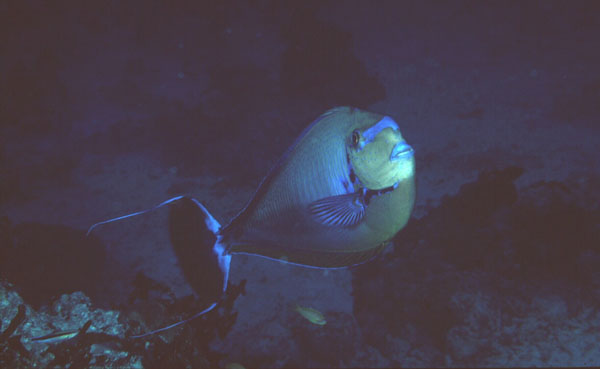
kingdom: Animalia
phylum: Chordata
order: Perciformes
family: Acanthuridae
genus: Naso
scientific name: Naso vlamingii
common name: Big-nose unicorn
